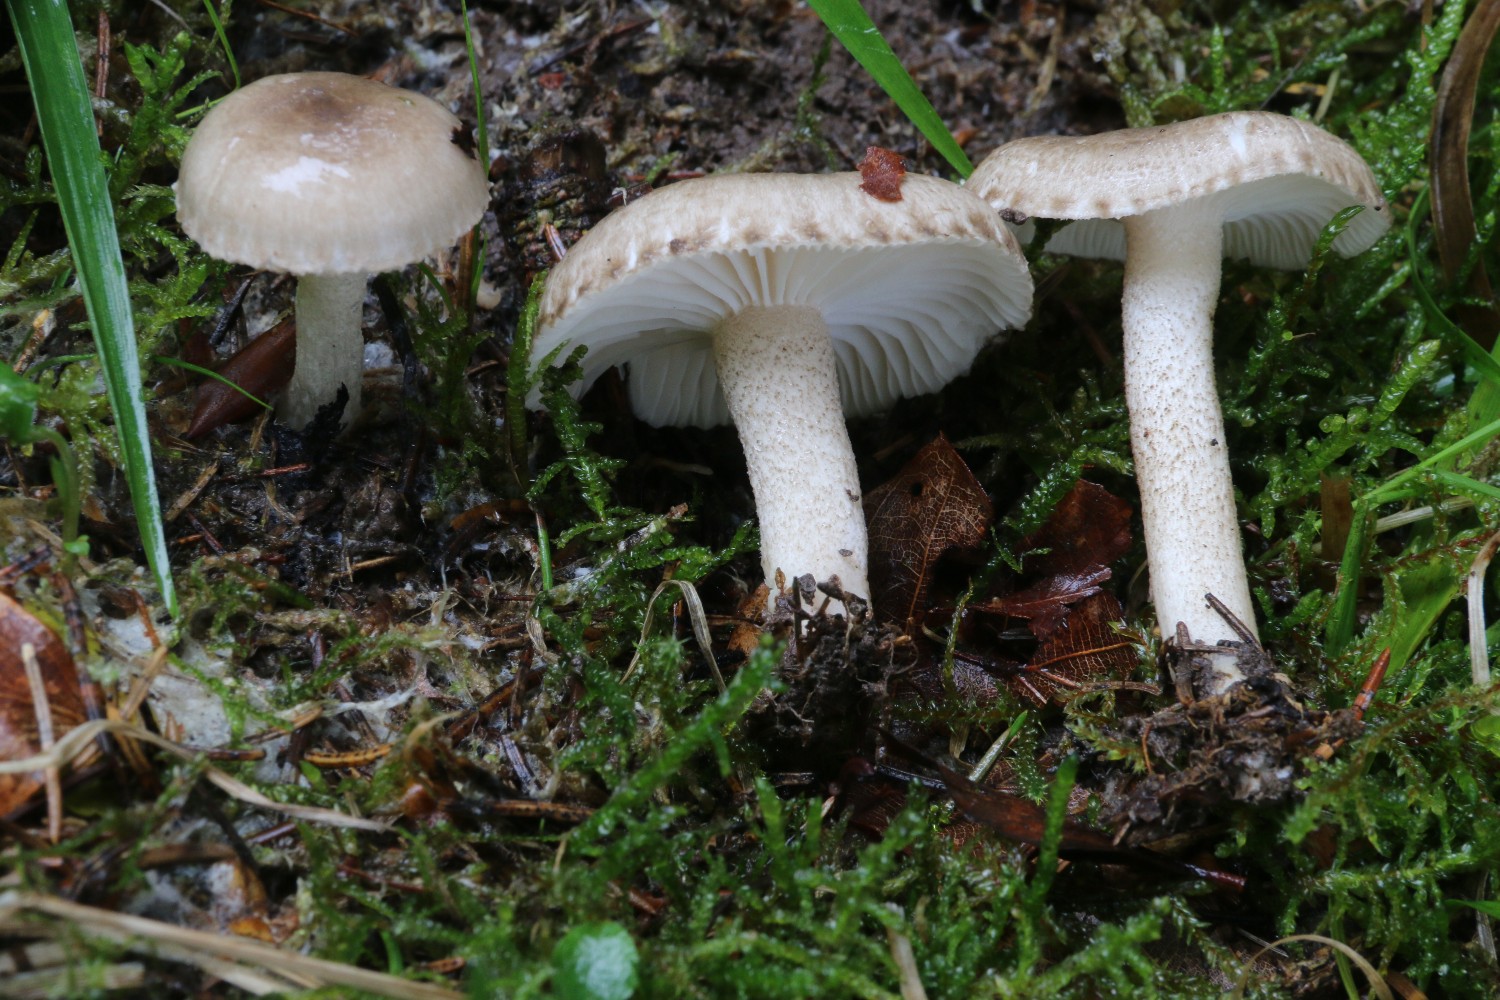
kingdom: Fungi
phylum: Basidiomycota
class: Agaricomycetes
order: Agaricales
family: Hygrophoraceae
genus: Hygrophorus
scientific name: Hygrophorus pustulatus
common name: mørkprikket sneglehat
